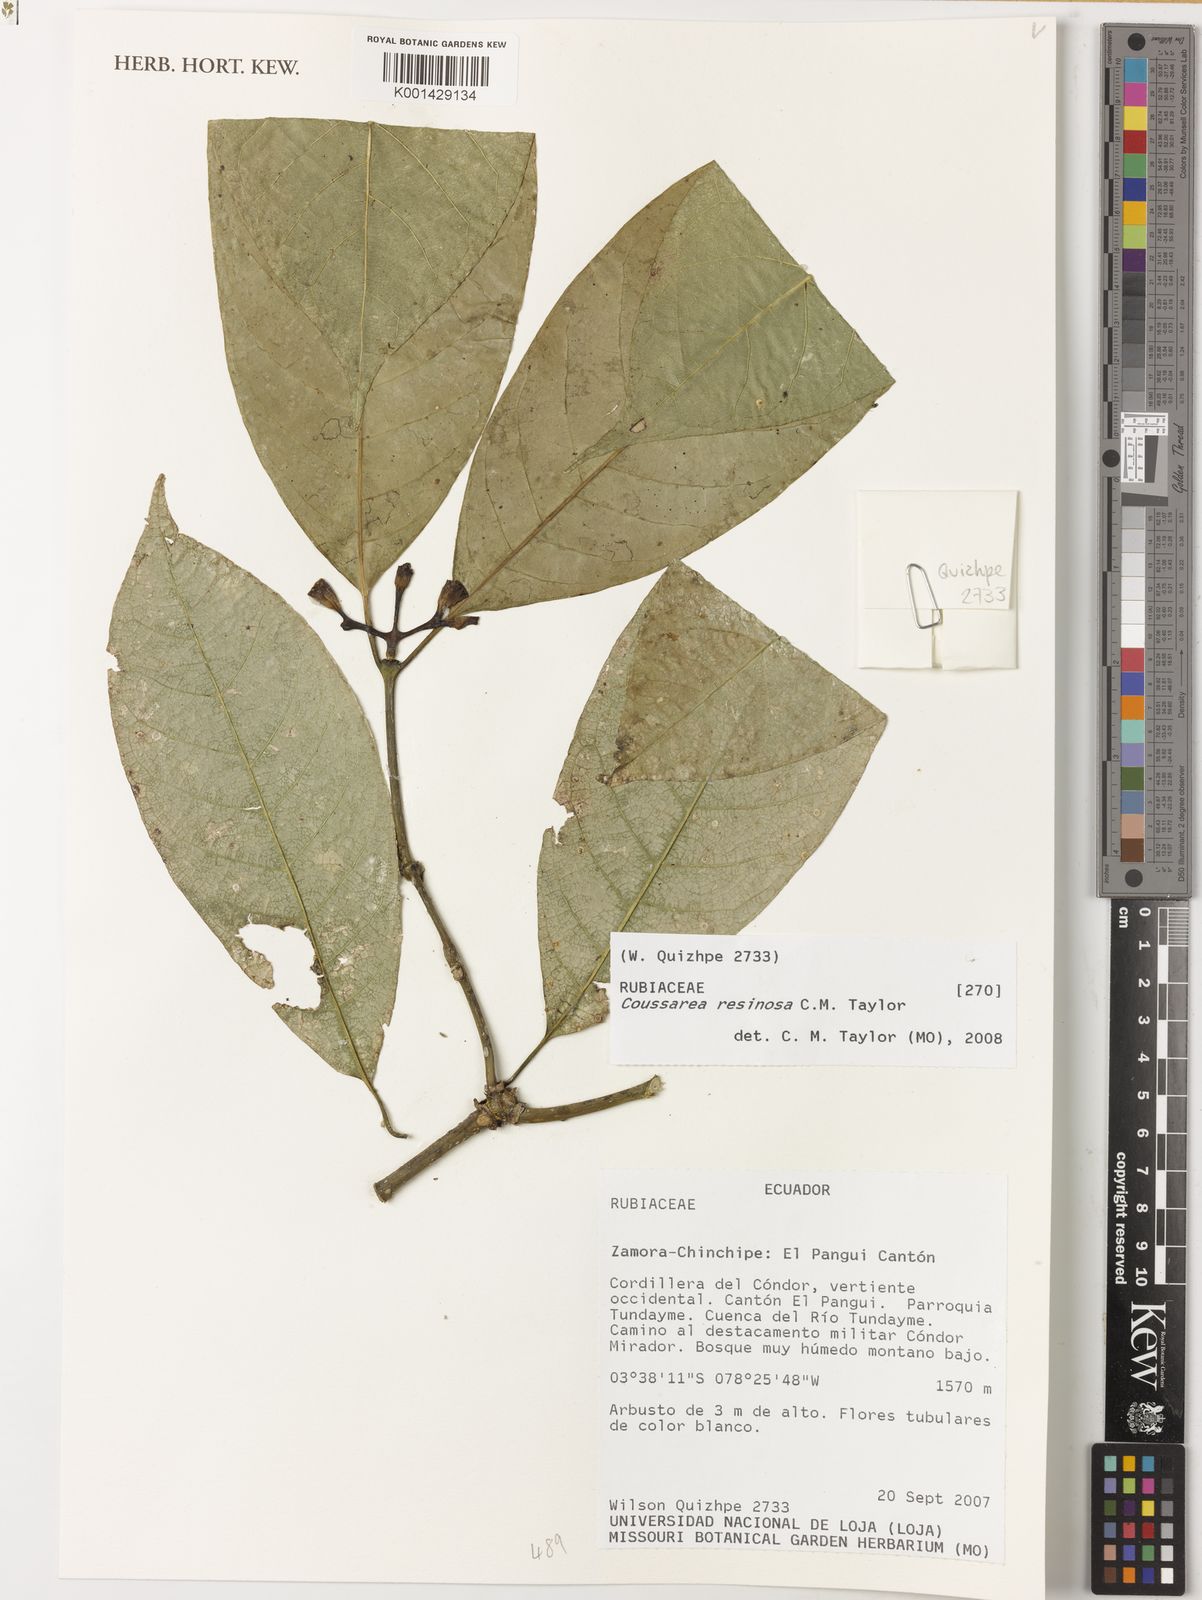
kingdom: Plantae
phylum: Tracheophyta
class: Magnoliopsida
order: Gentianales
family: Rubiaceae
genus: Coussarea
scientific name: Coussarea resinosa
